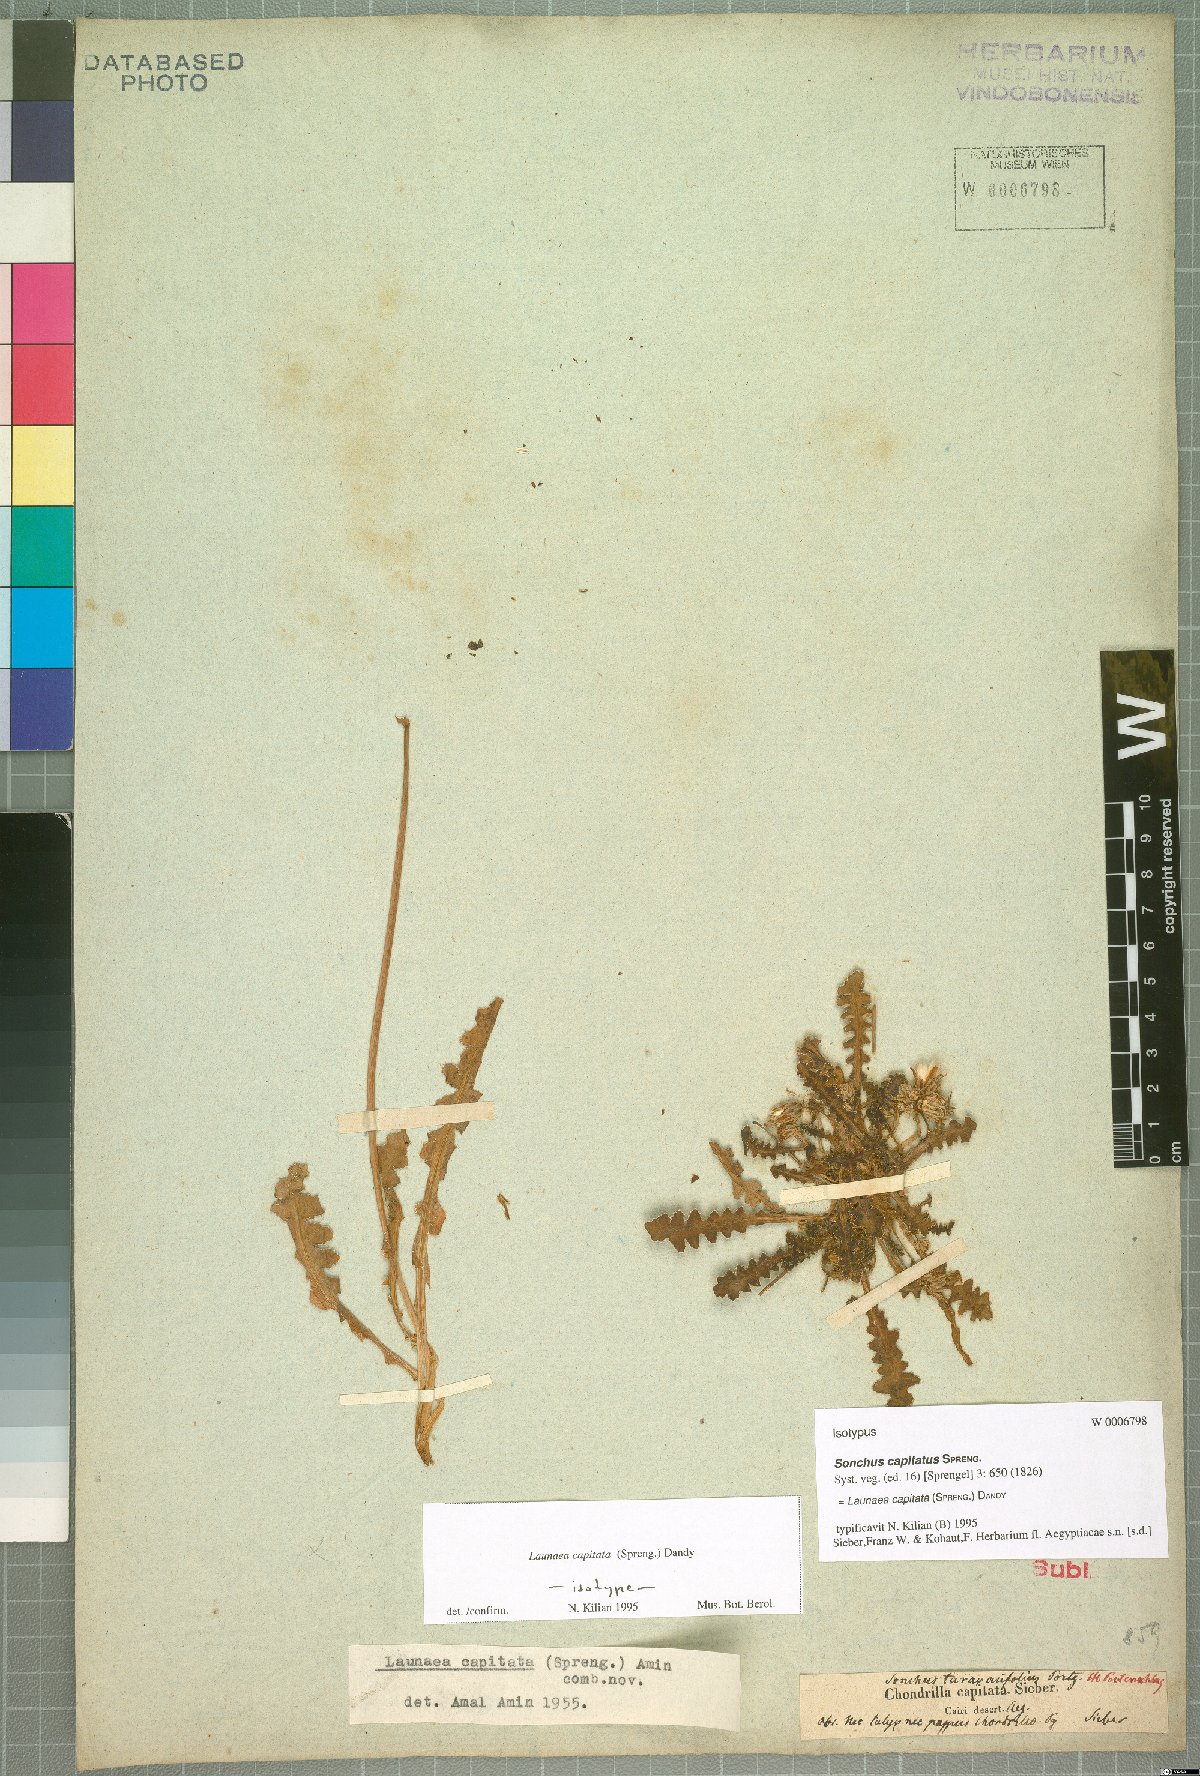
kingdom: Plantae
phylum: Tracheophyta
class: Magnoliopsida
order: Asterales
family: Asteraceae
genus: Launaea
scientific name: Launaea capitata
